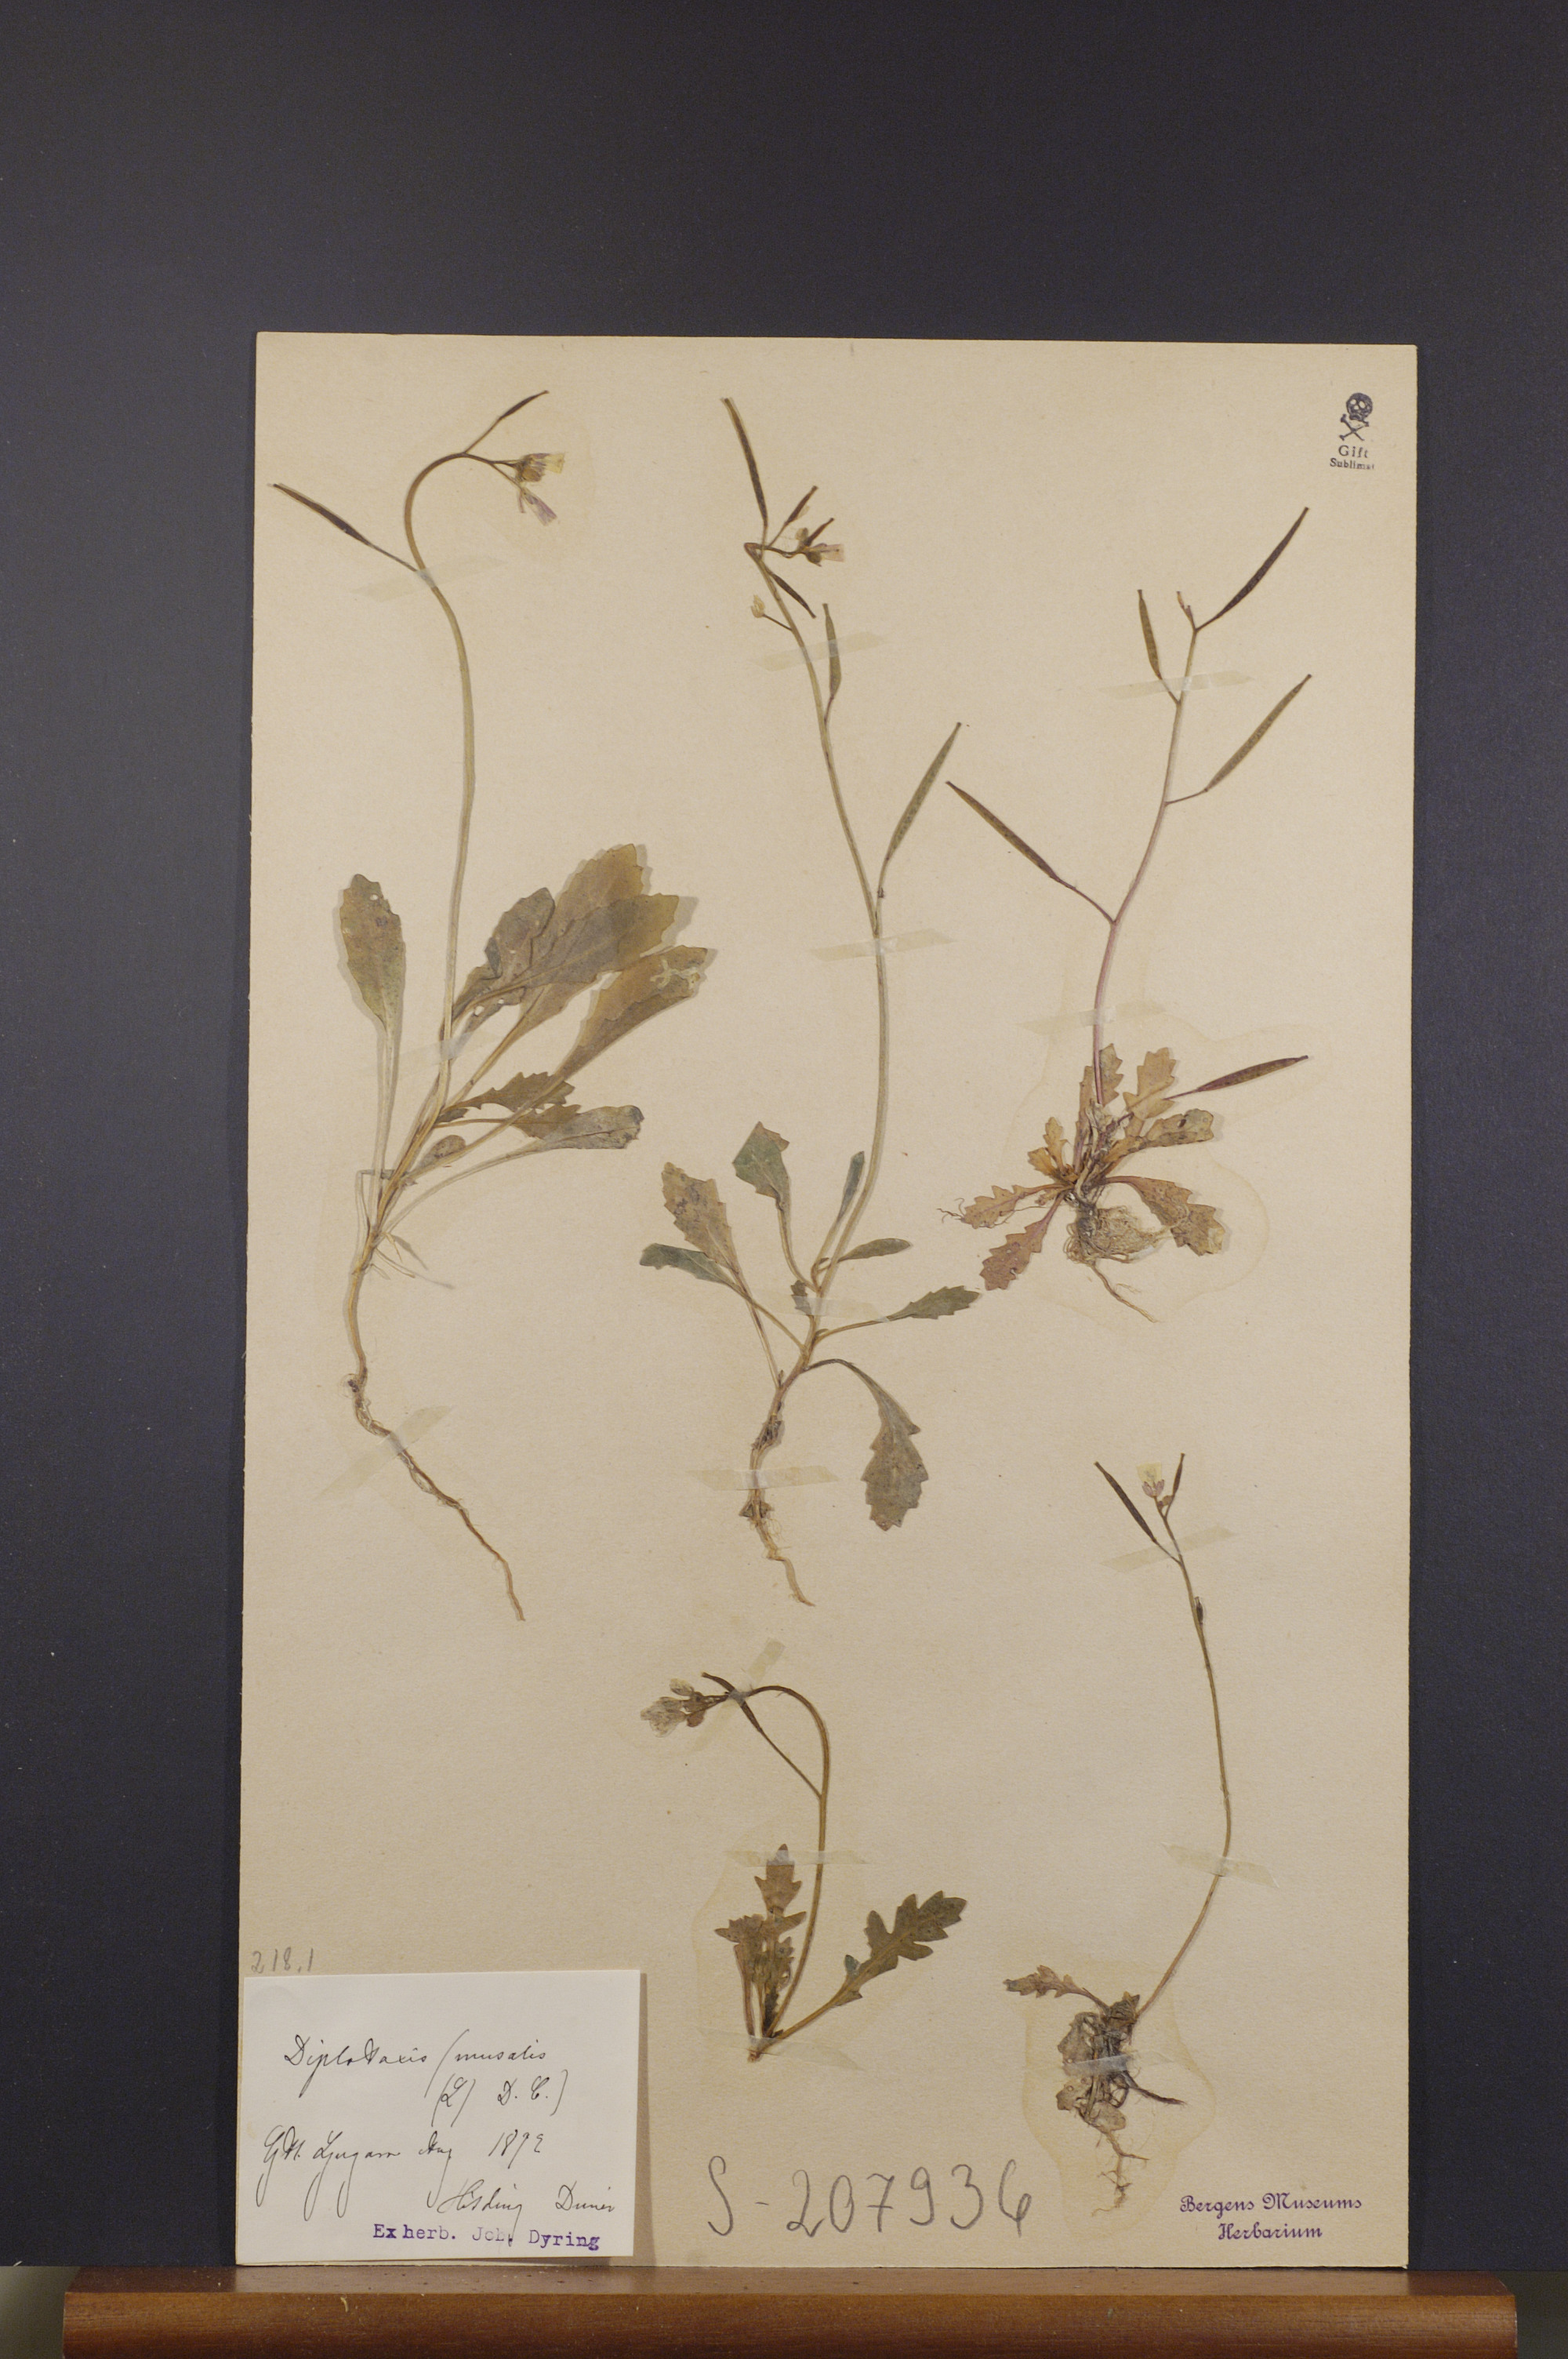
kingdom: Plantae
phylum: Tracheophyta
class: Magnoliopsida
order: Brassicales
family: Brassicaceae
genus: Diplotaxis
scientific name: Diplotaxis muralis
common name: Annual wall-rocket
